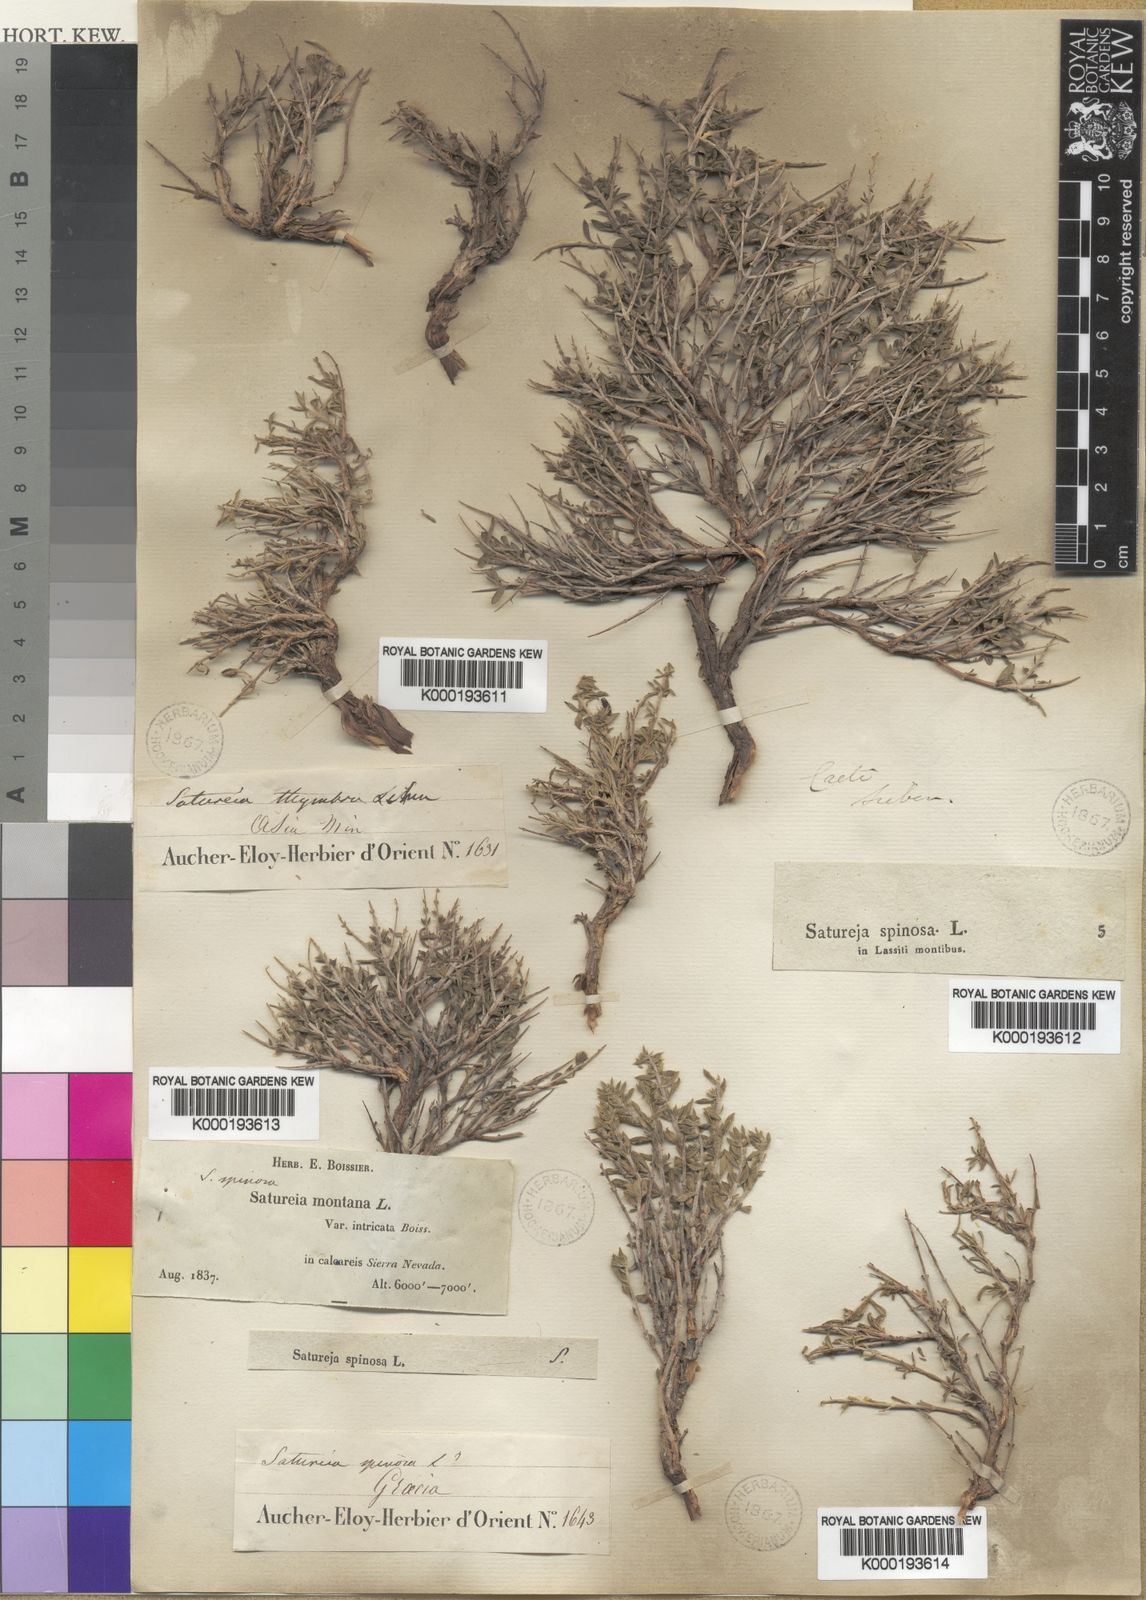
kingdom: Plantae
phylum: Tracheophyta
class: Magnoliopsida
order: Lamiales
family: Lamiaceae
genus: Satureja
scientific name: Satureja spinosa
